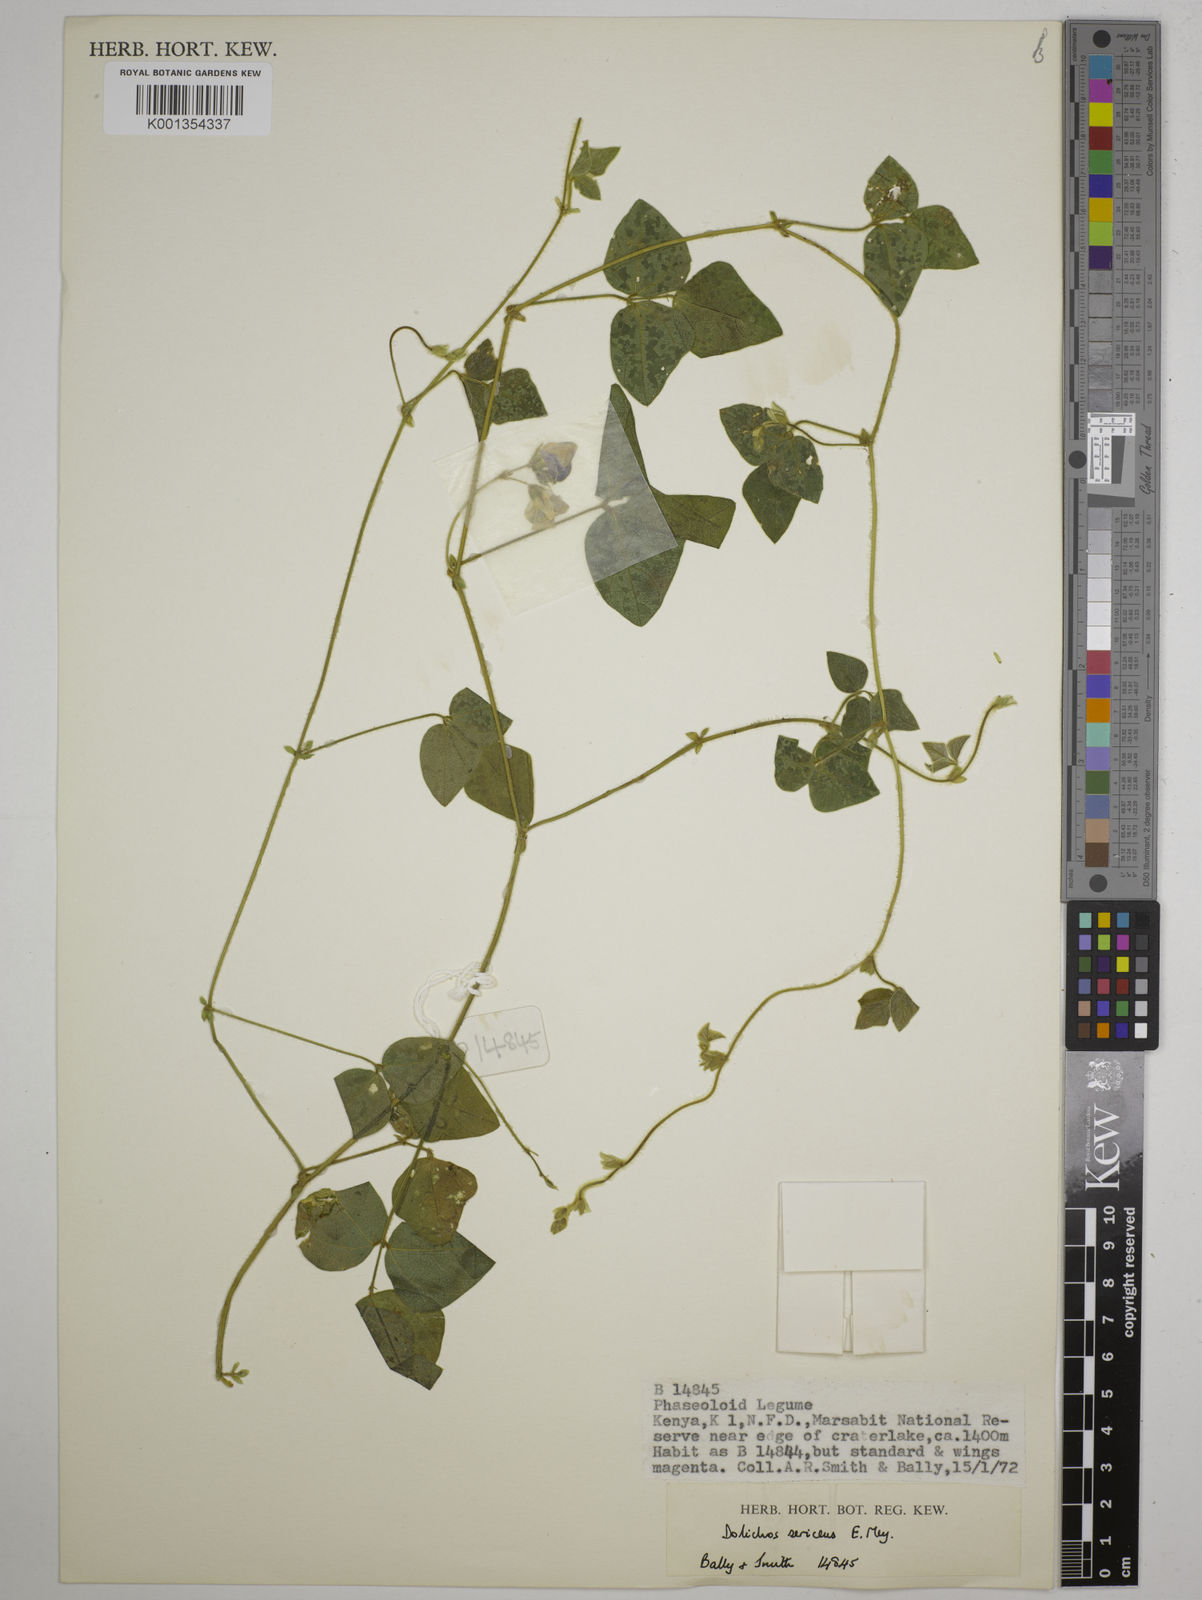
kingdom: Plantae
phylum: Tracheophyta
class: Magnoliopsida
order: Fabales
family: Fabaceae
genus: Dolichos
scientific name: Dolichos sericeus
